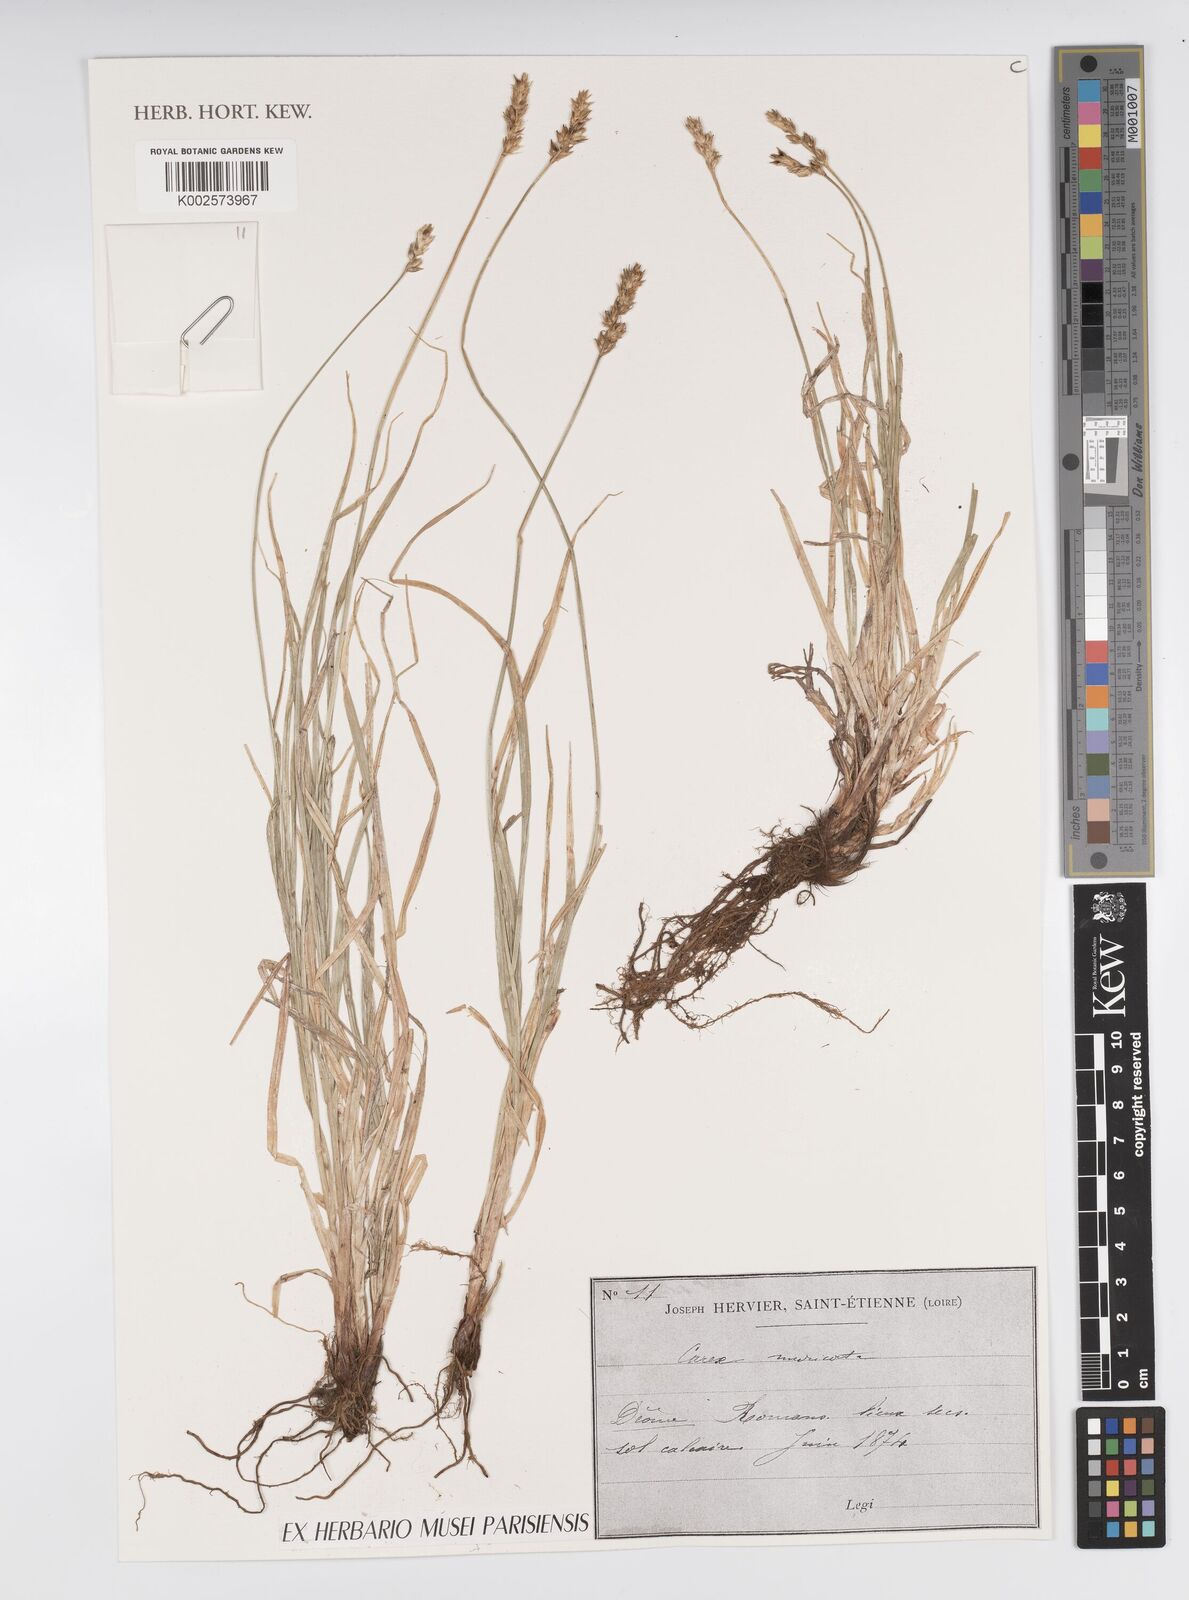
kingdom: Plantae
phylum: Tracheophyta
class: Liliopsida
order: Poales
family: Cyperaceae
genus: Carex
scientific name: Carex mucronata
